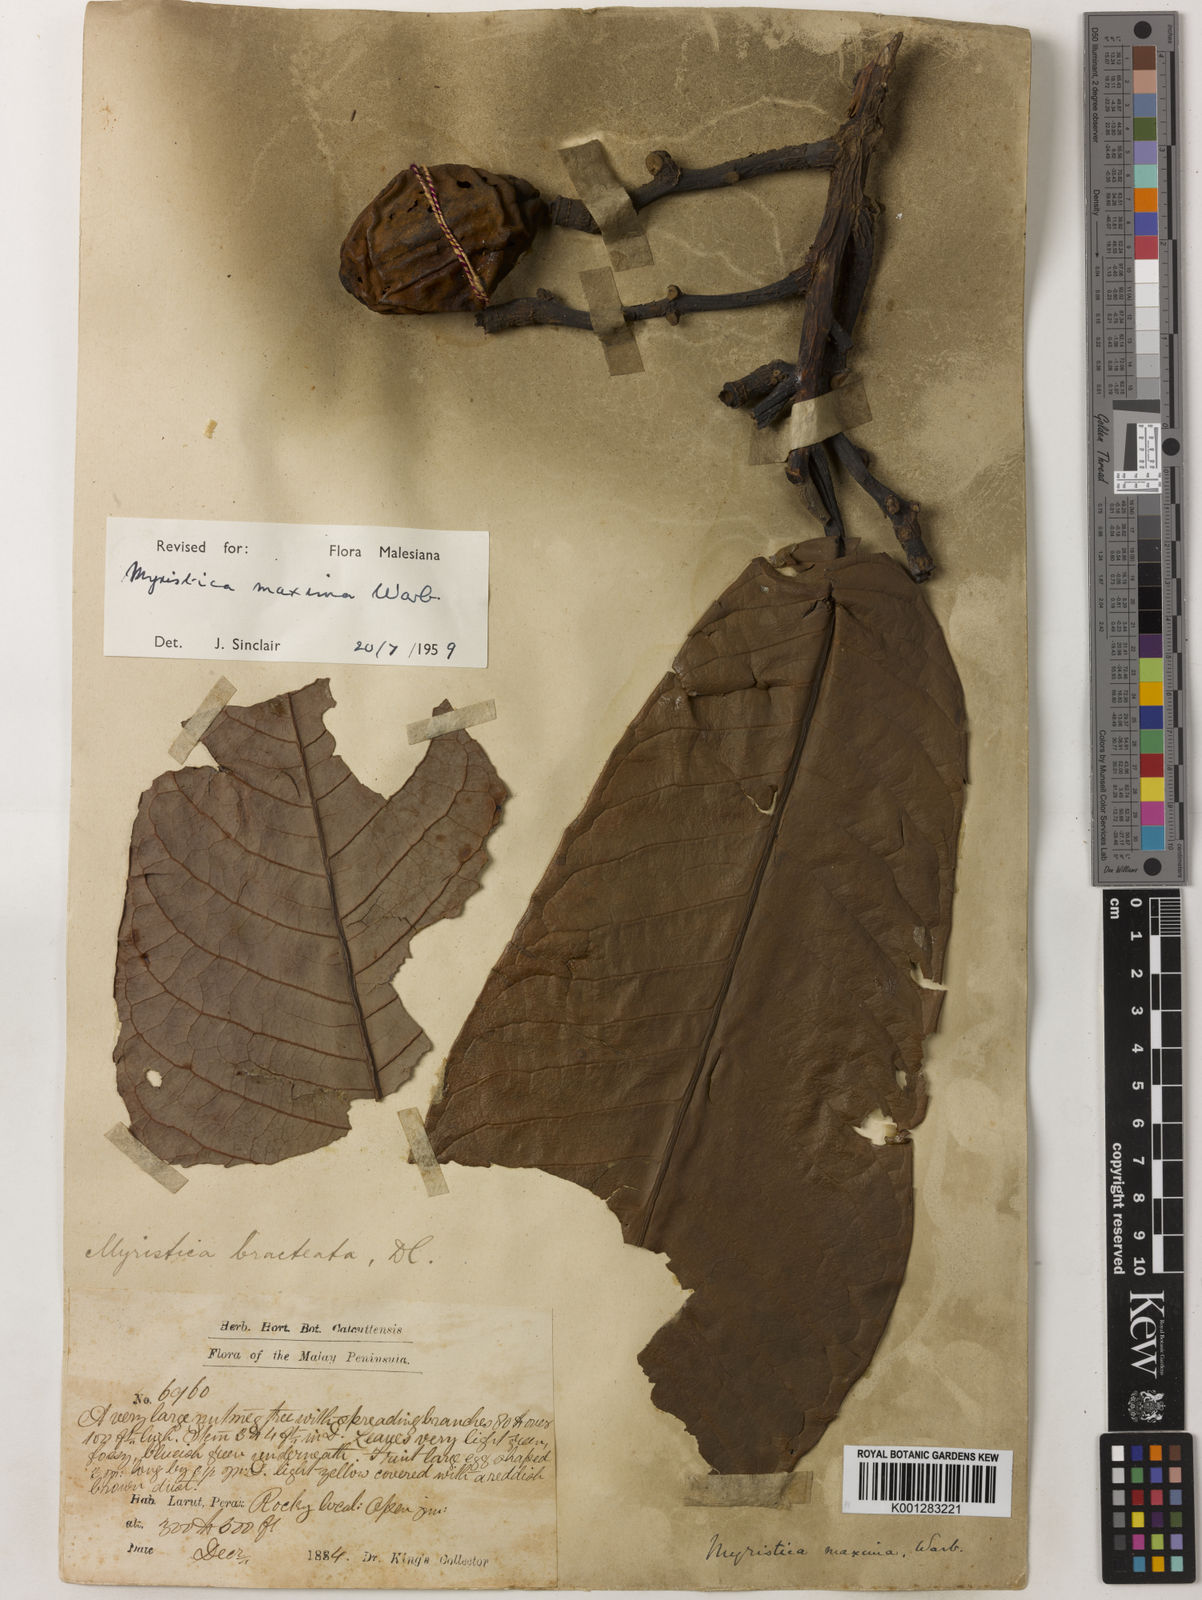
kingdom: Plantae
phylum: Tracheophyta
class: Magnoliopsida
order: Magnoliales
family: Myristicaceae
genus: Myristica
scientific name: Myristica maxima
